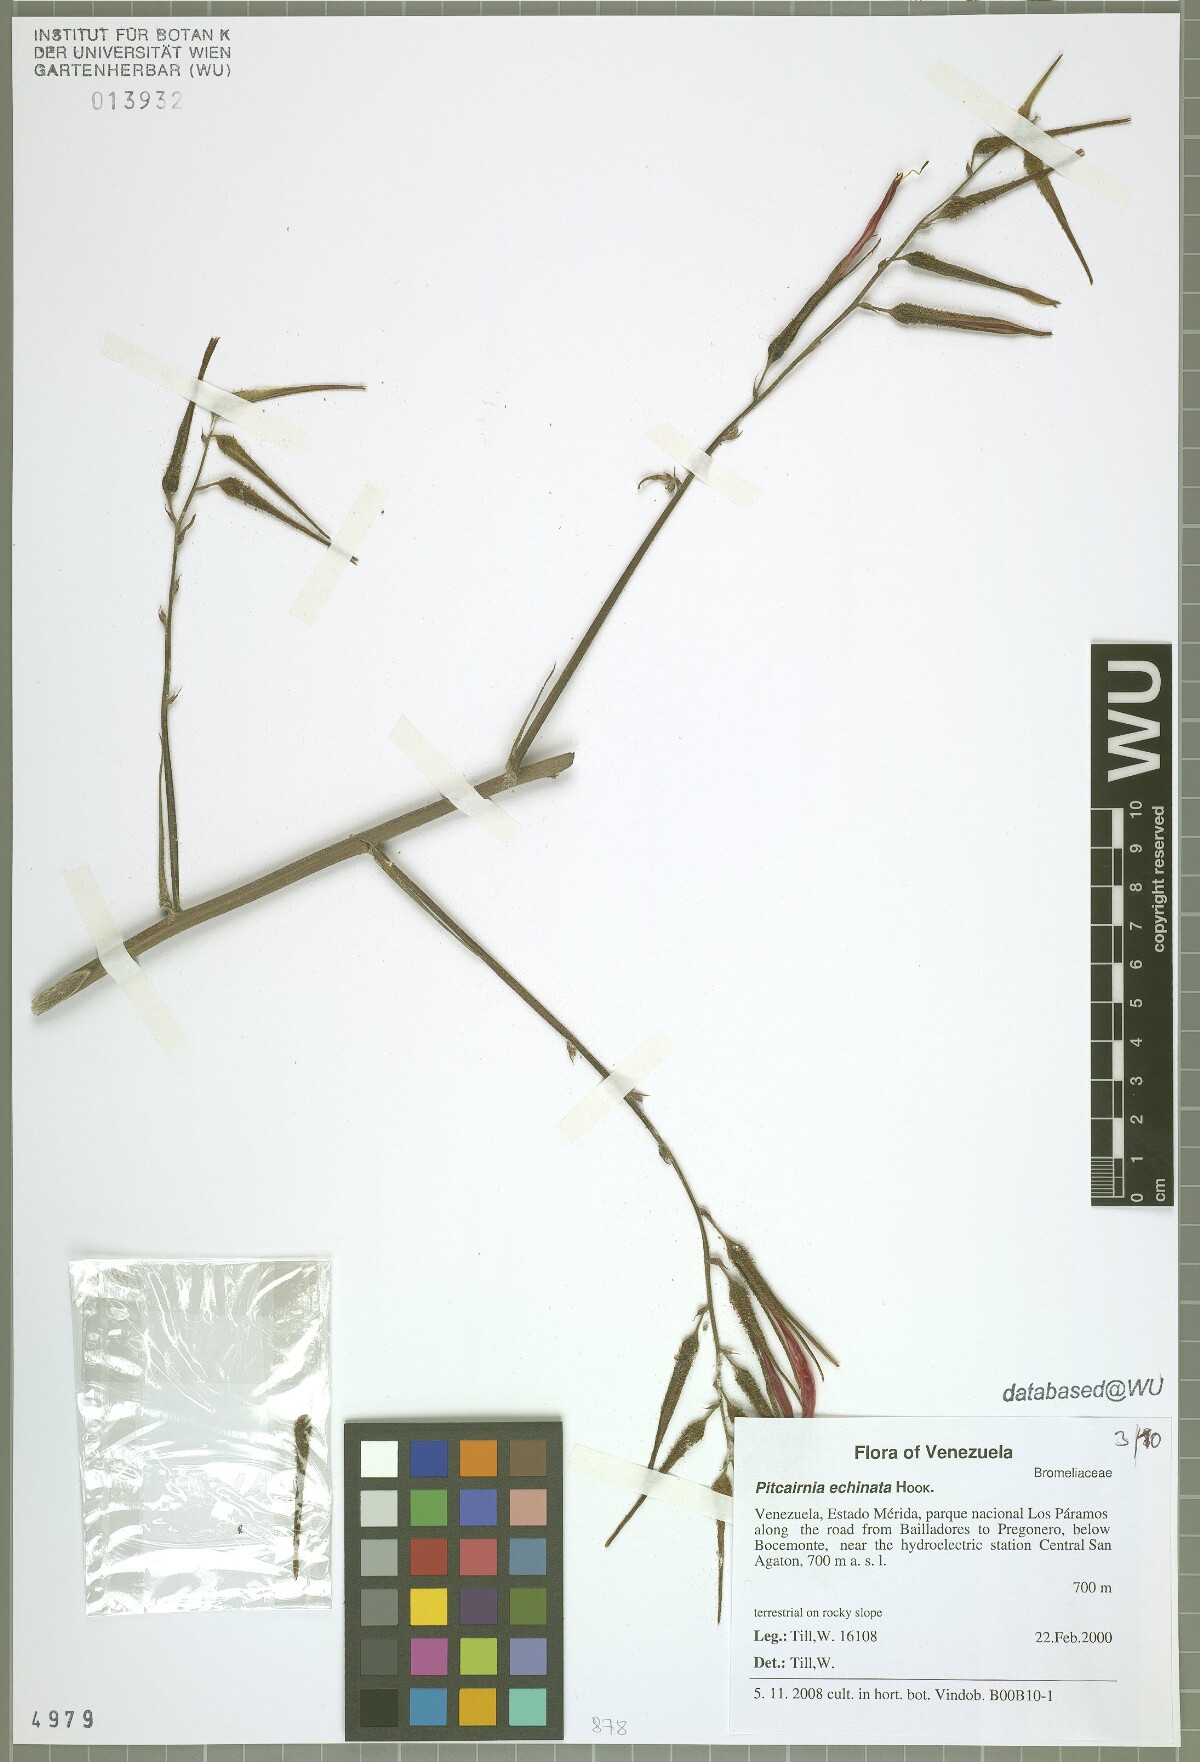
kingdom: Plantae
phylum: Tracheophyta
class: Liliopsida
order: Poales
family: Bromeliaceae
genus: Pitcairnia
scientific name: Pitcairnia echinata
